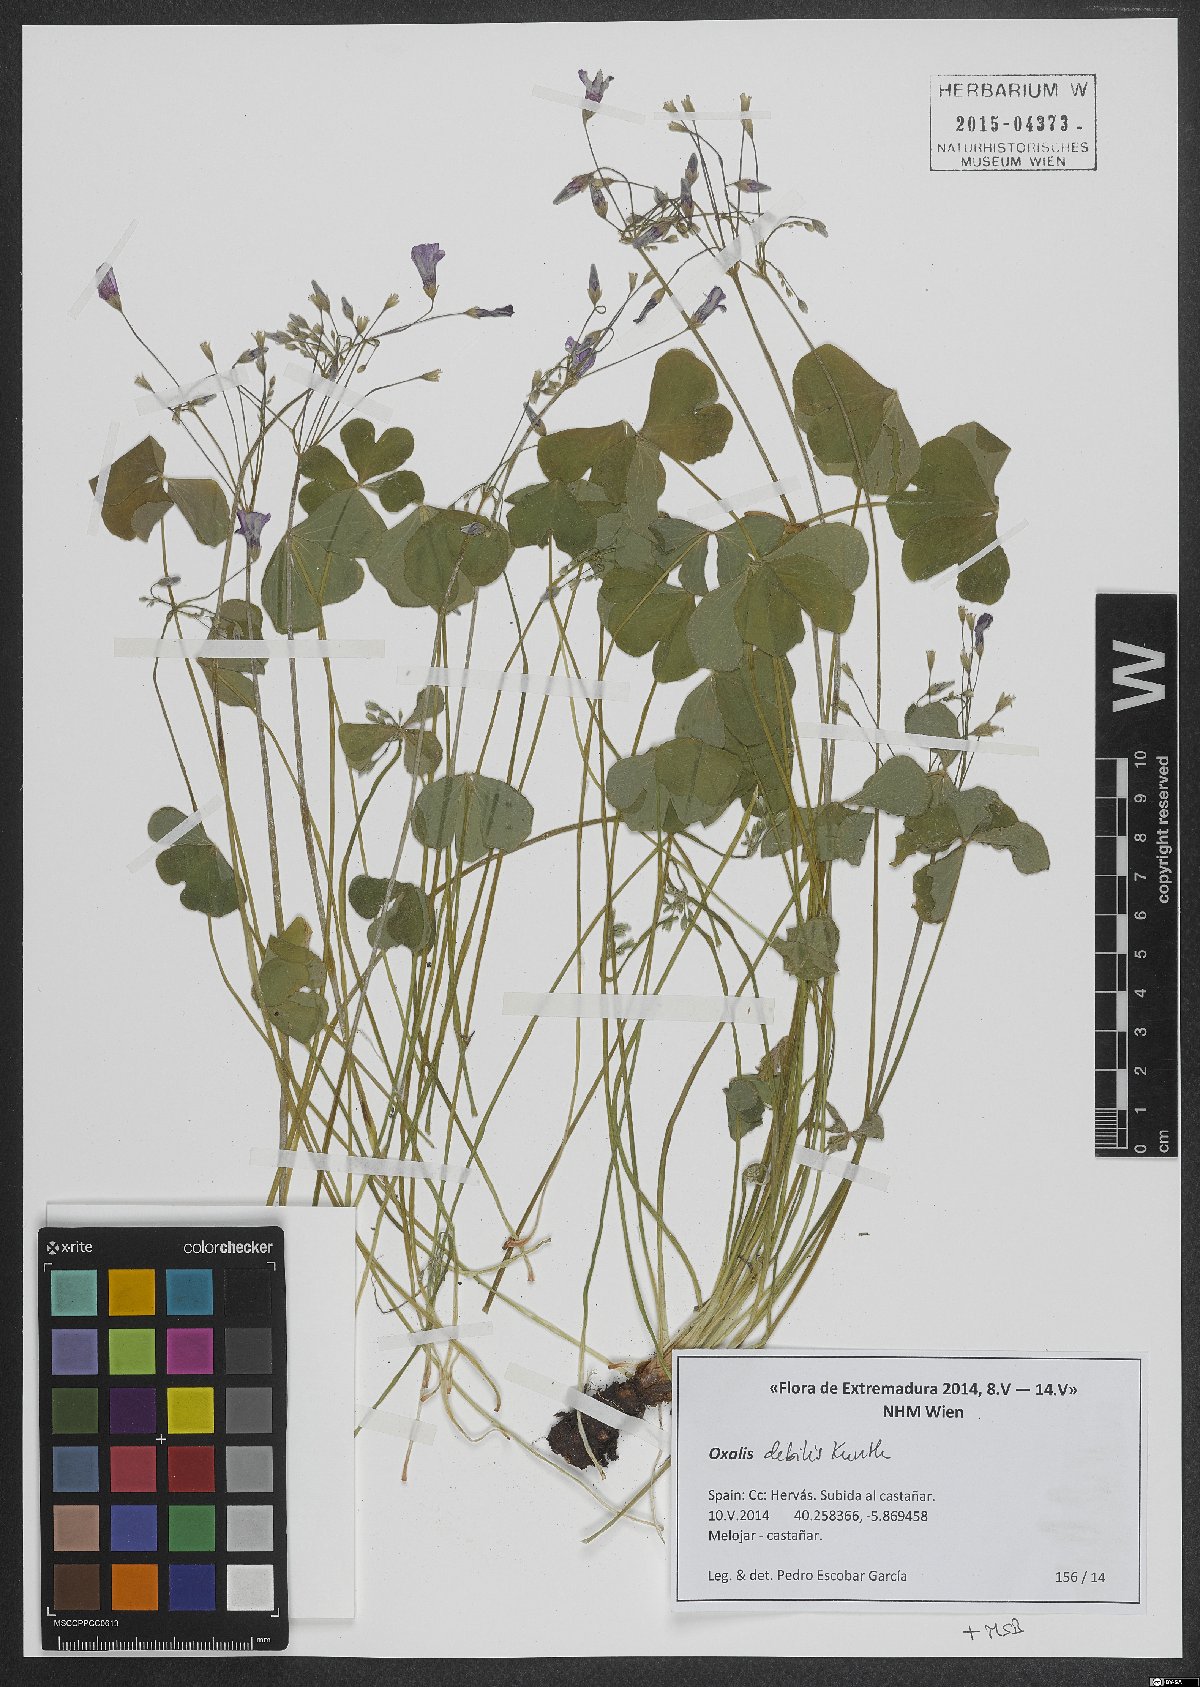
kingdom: Plantae
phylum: Tracheophyta
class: Magnoliopsida
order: Oxalidales
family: Oxalidaceae
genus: Oxalis
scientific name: Oxalis debilis
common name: Large-flowered pink-sorrel
